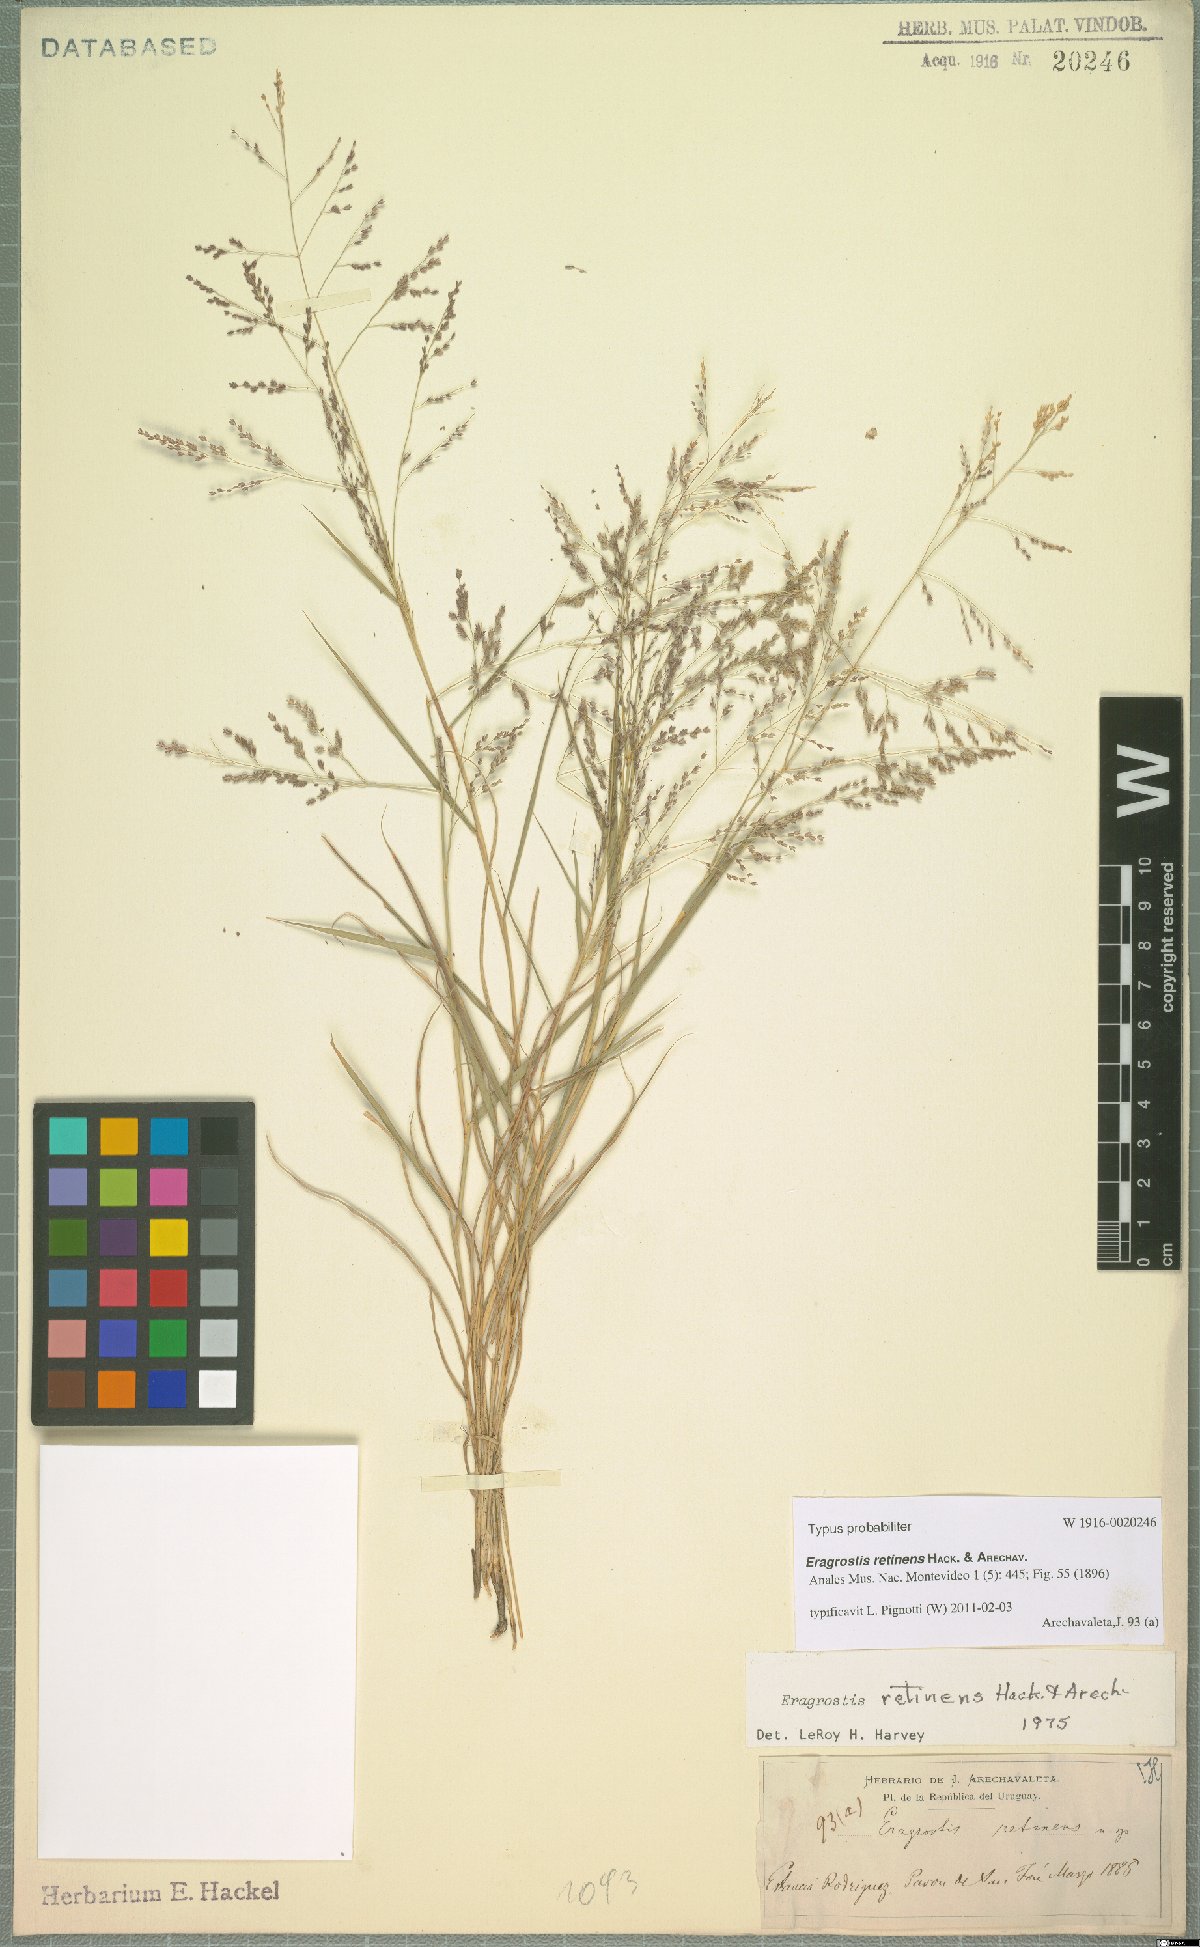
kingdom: Plantae
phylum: Tracheophyta
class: Liliopsida
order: Poales
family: Poaceae
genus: Eragrostis
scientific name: Eragrostis retinens
